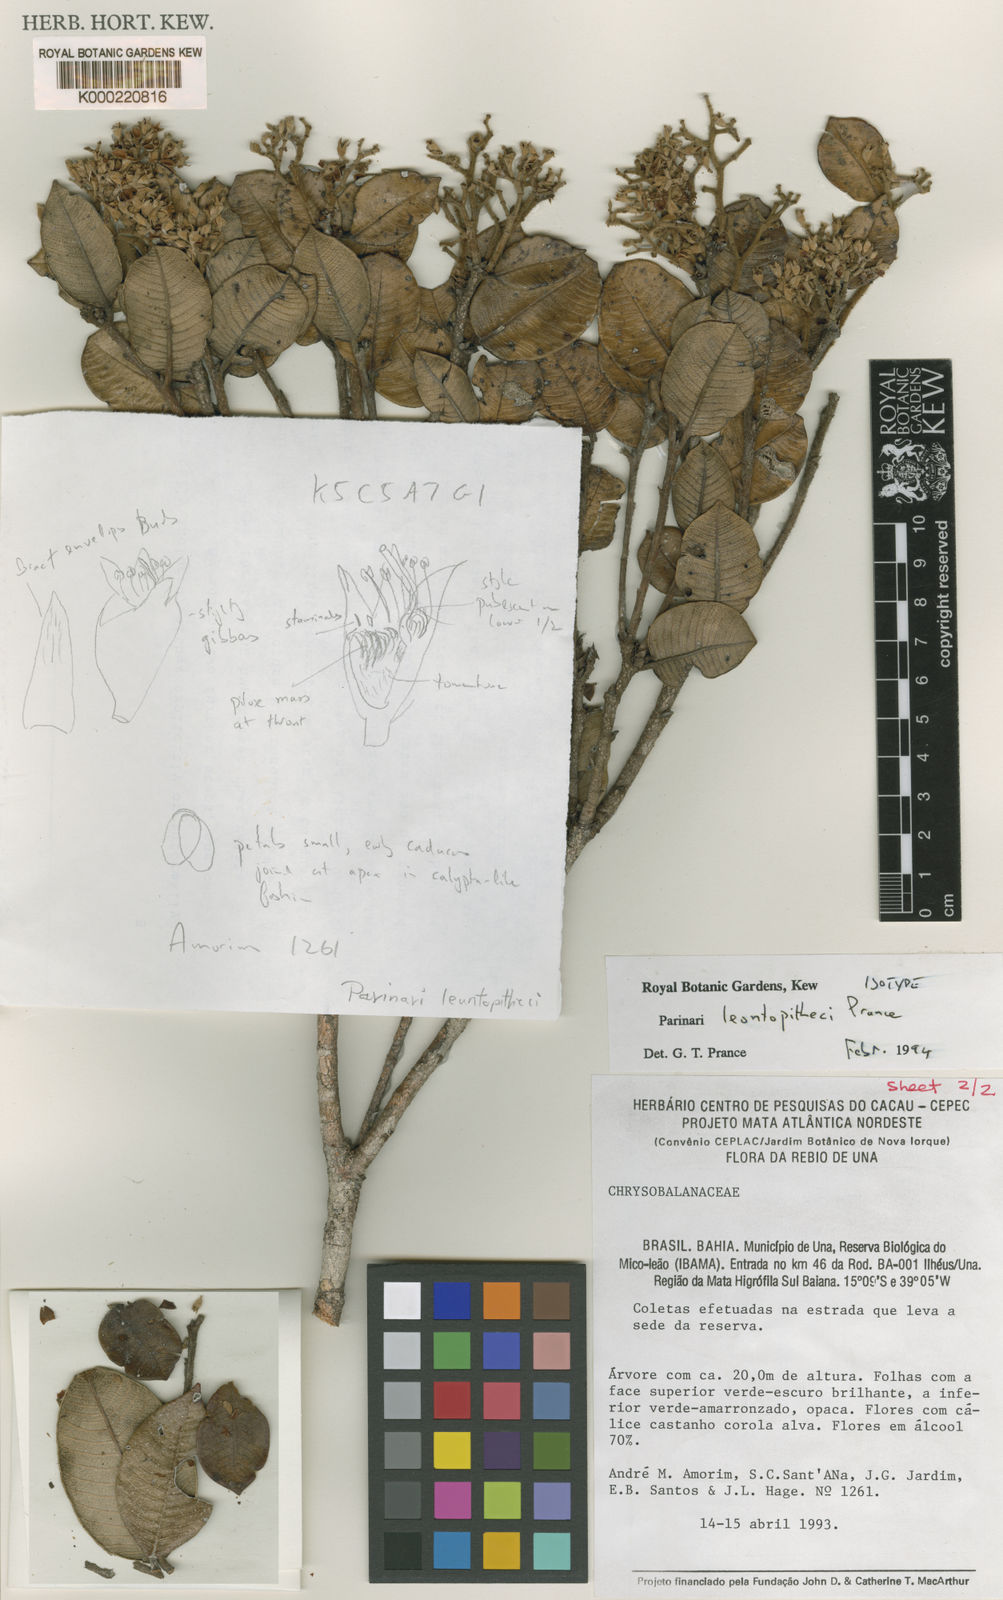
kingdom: Plantae
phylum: Tracheophyta
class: Magnoliopsida
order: Malpighiales
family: Chrysobalanaceae
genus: Parinari
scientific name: Parinari leontopitheci
